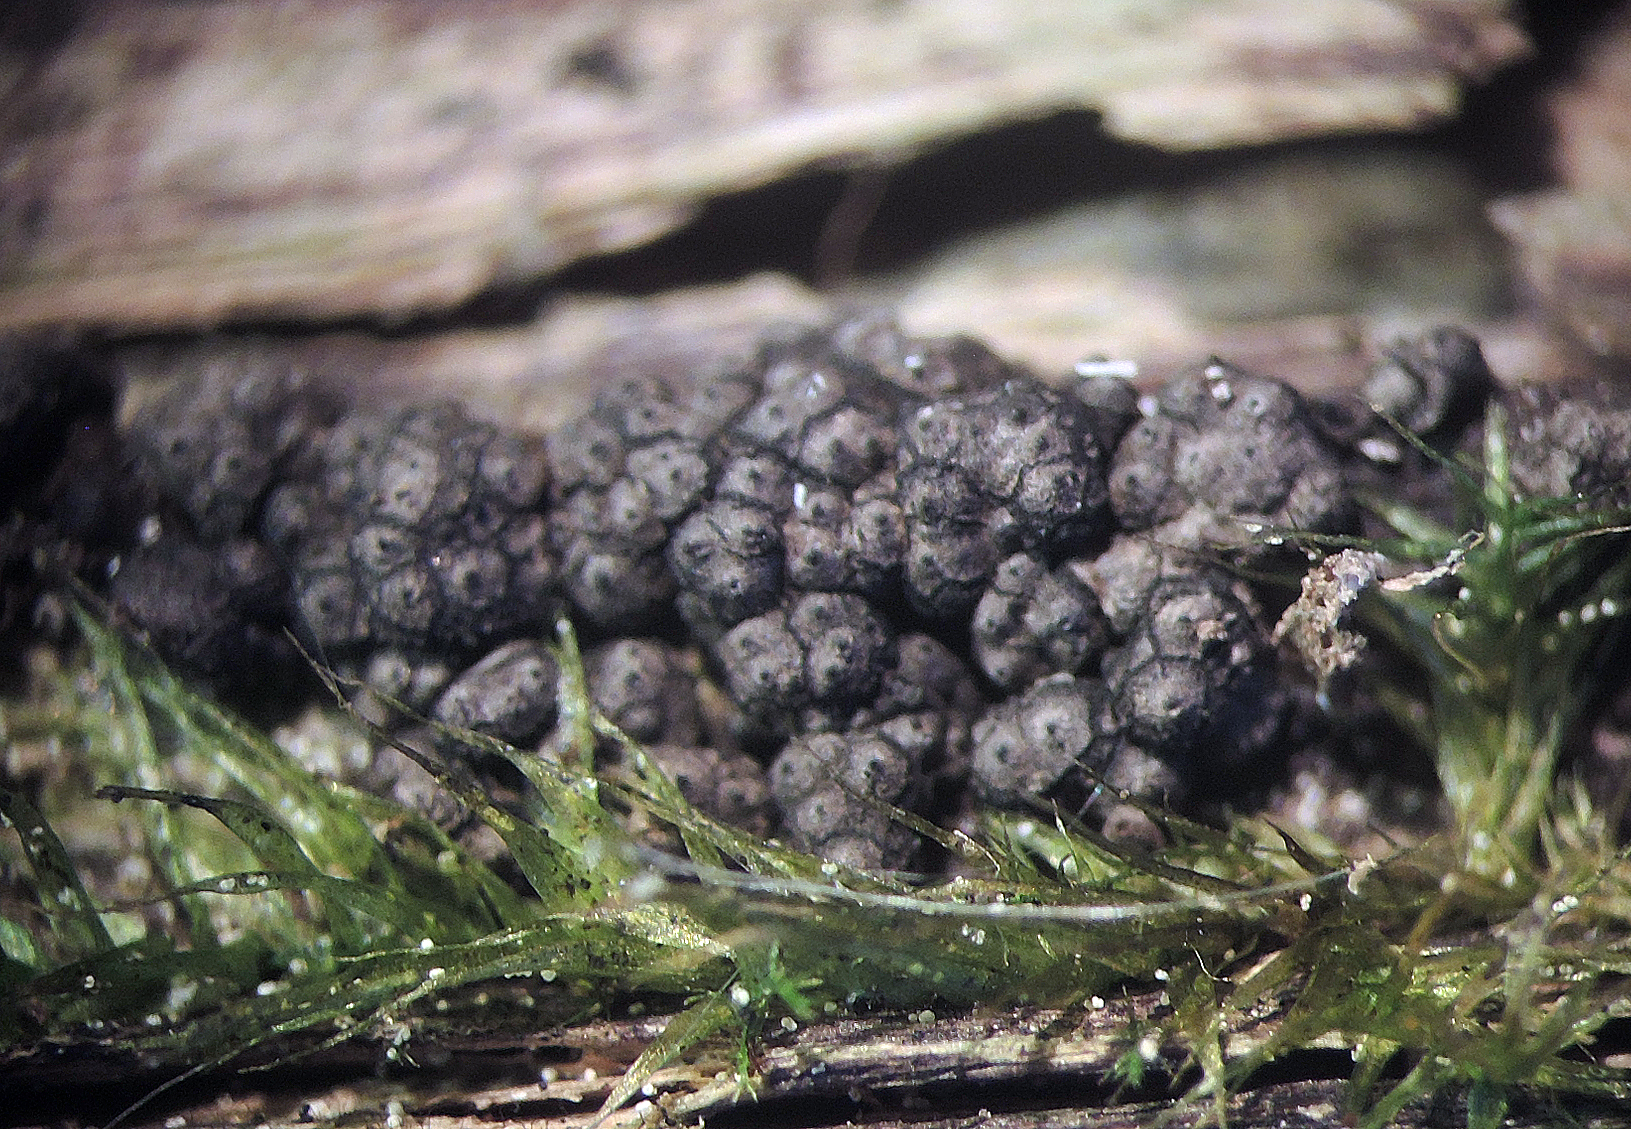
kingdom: Fungi
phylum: Ascomycota
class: Sordariomycetes
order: Xylariales
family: Xylariaceae
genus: Rosellinia
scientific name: Rosellinia callosa
